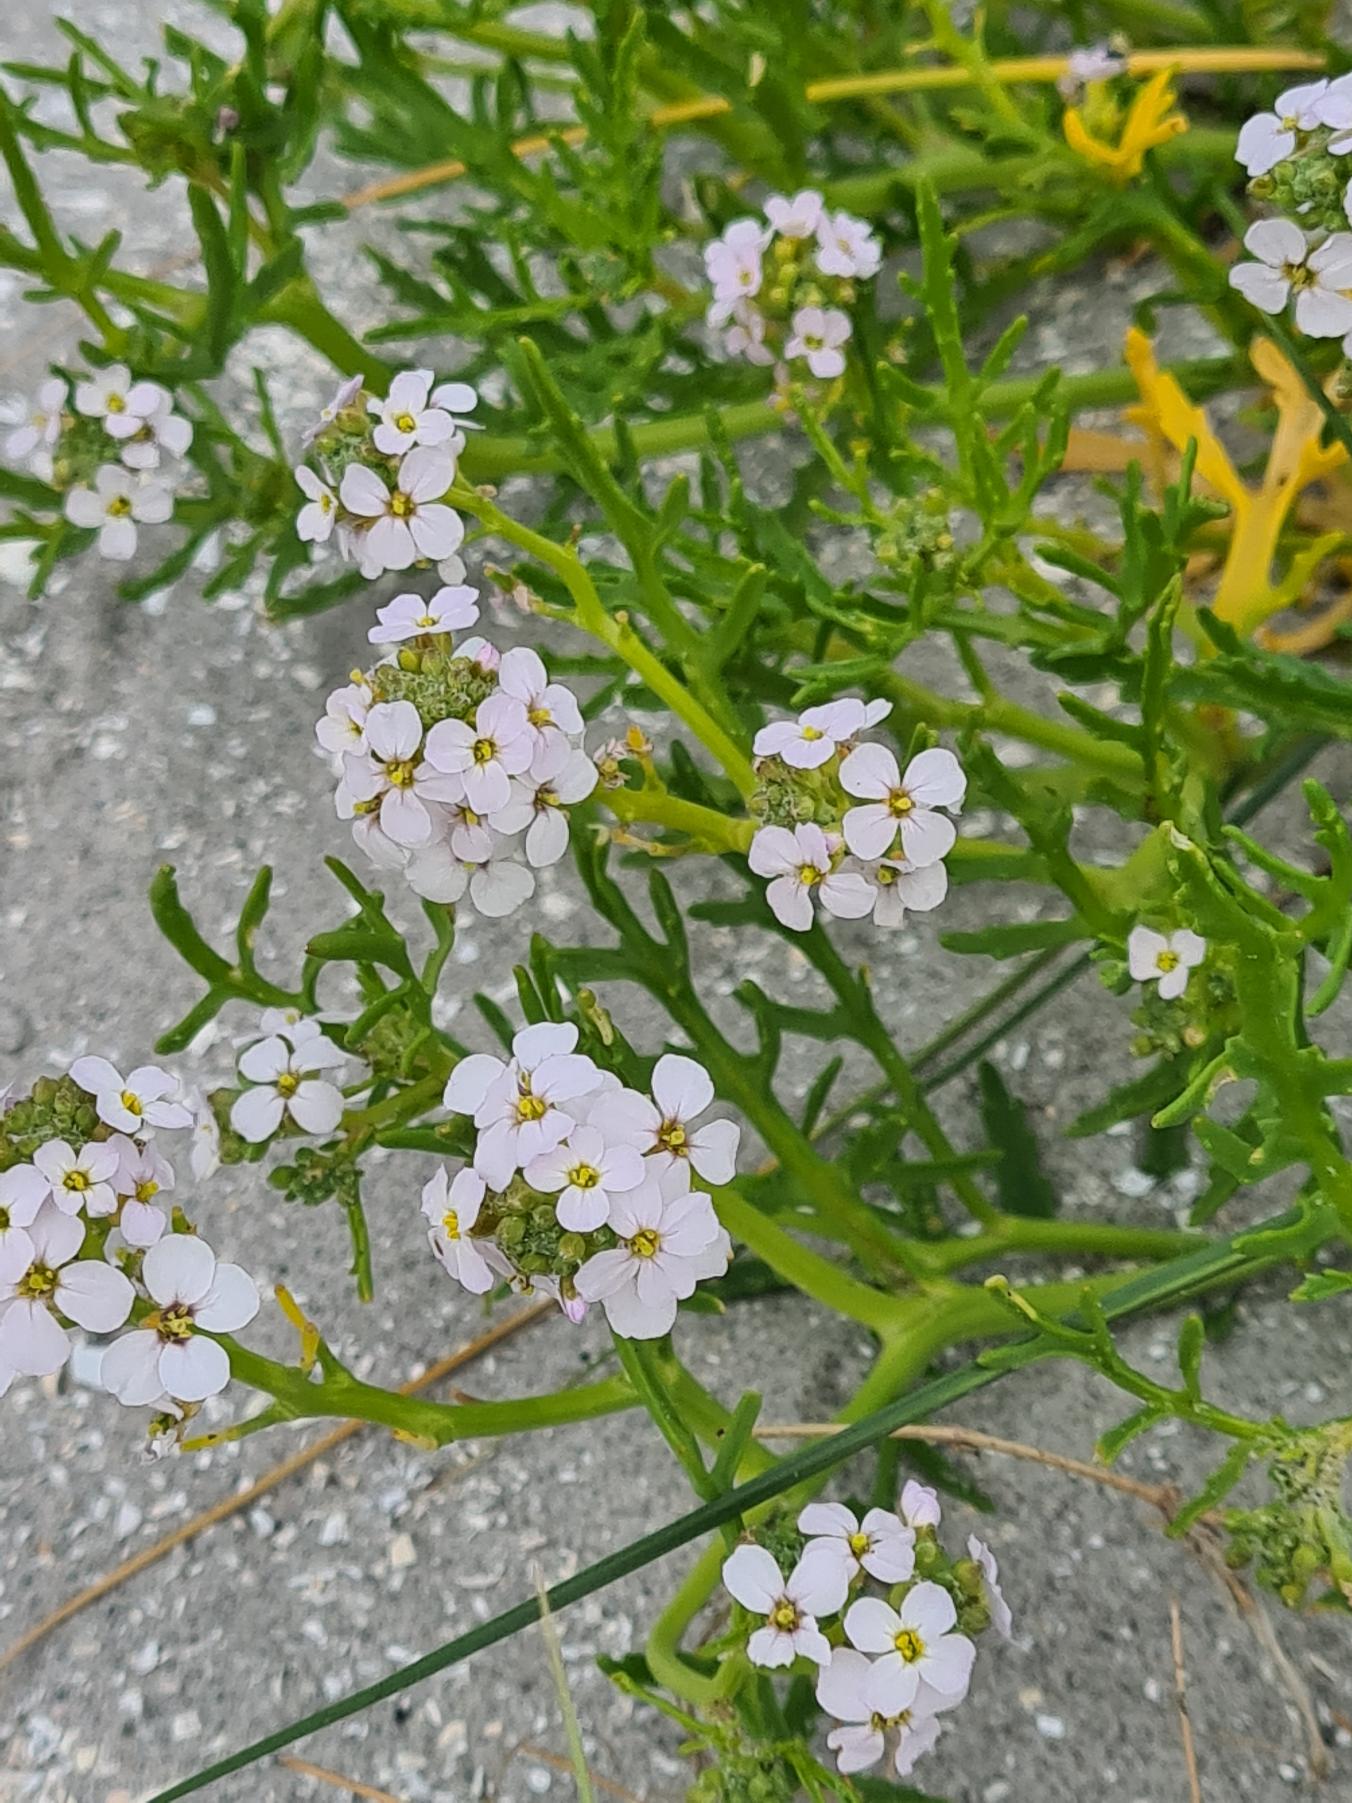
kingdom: Plantae
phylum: Tracheophyta
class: Magnoliopsida
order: Brassicales
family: Brassicaceae
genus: Cakile
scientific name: Cakile maritima
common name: Strandsennep
